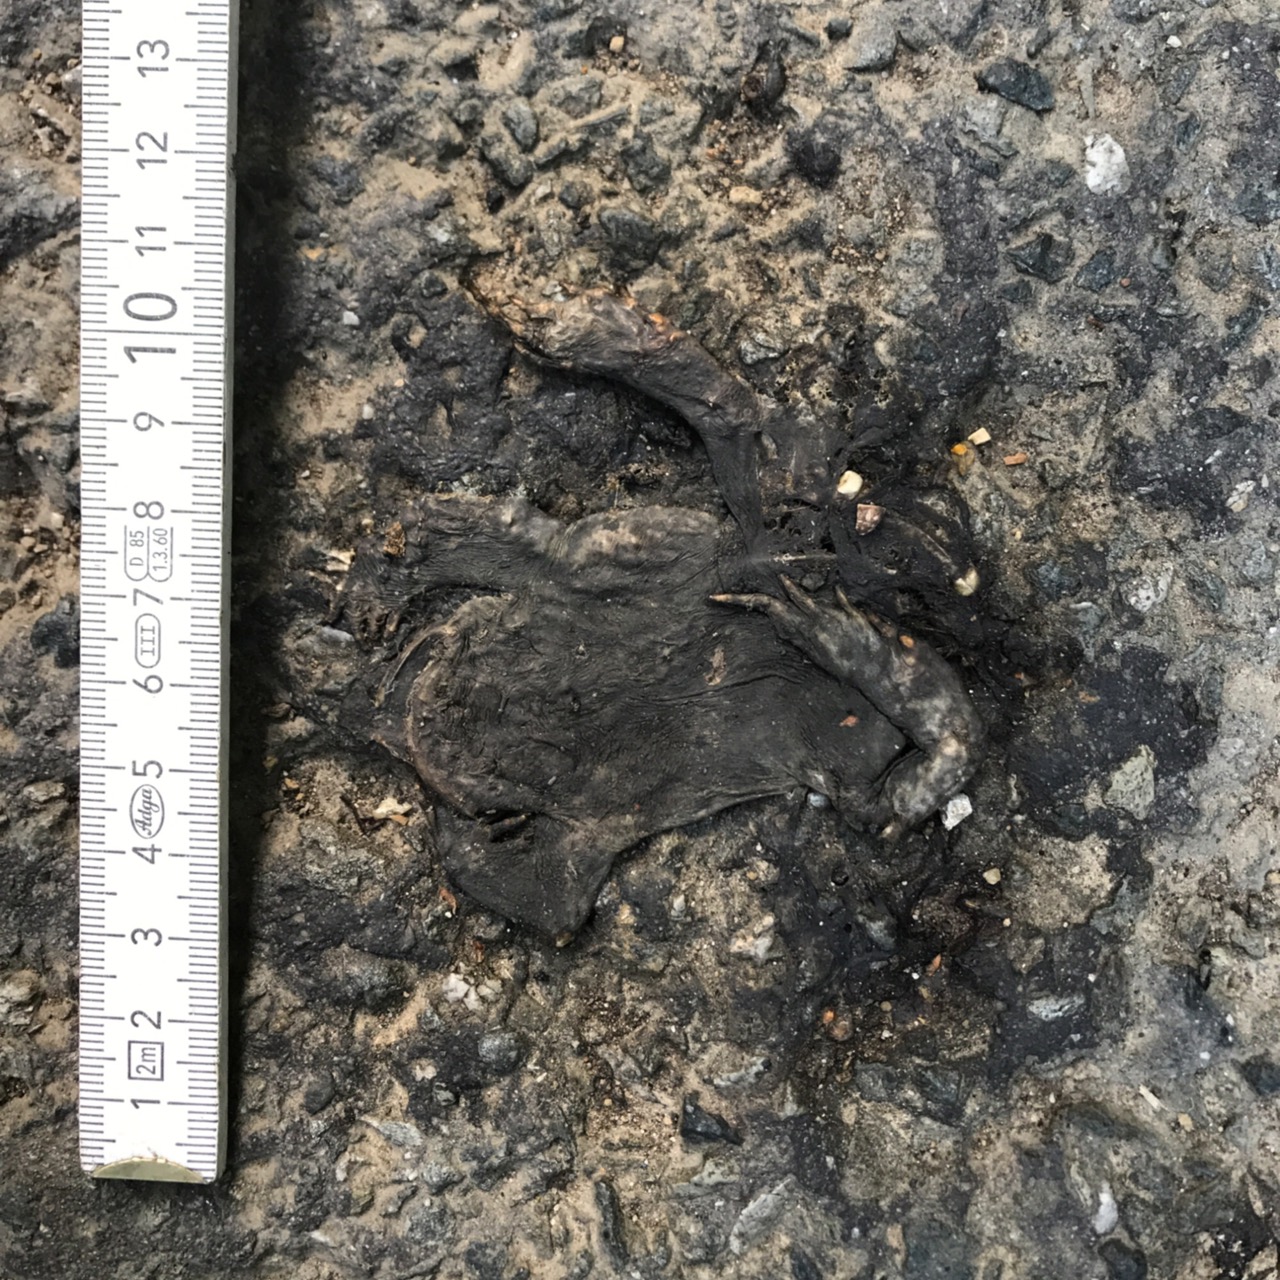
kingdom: Animalia
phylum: Chordata
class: Amphibia
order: Anura
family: Bufonidae
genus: Bufo
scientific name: Bufo bufo
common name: Common toad
